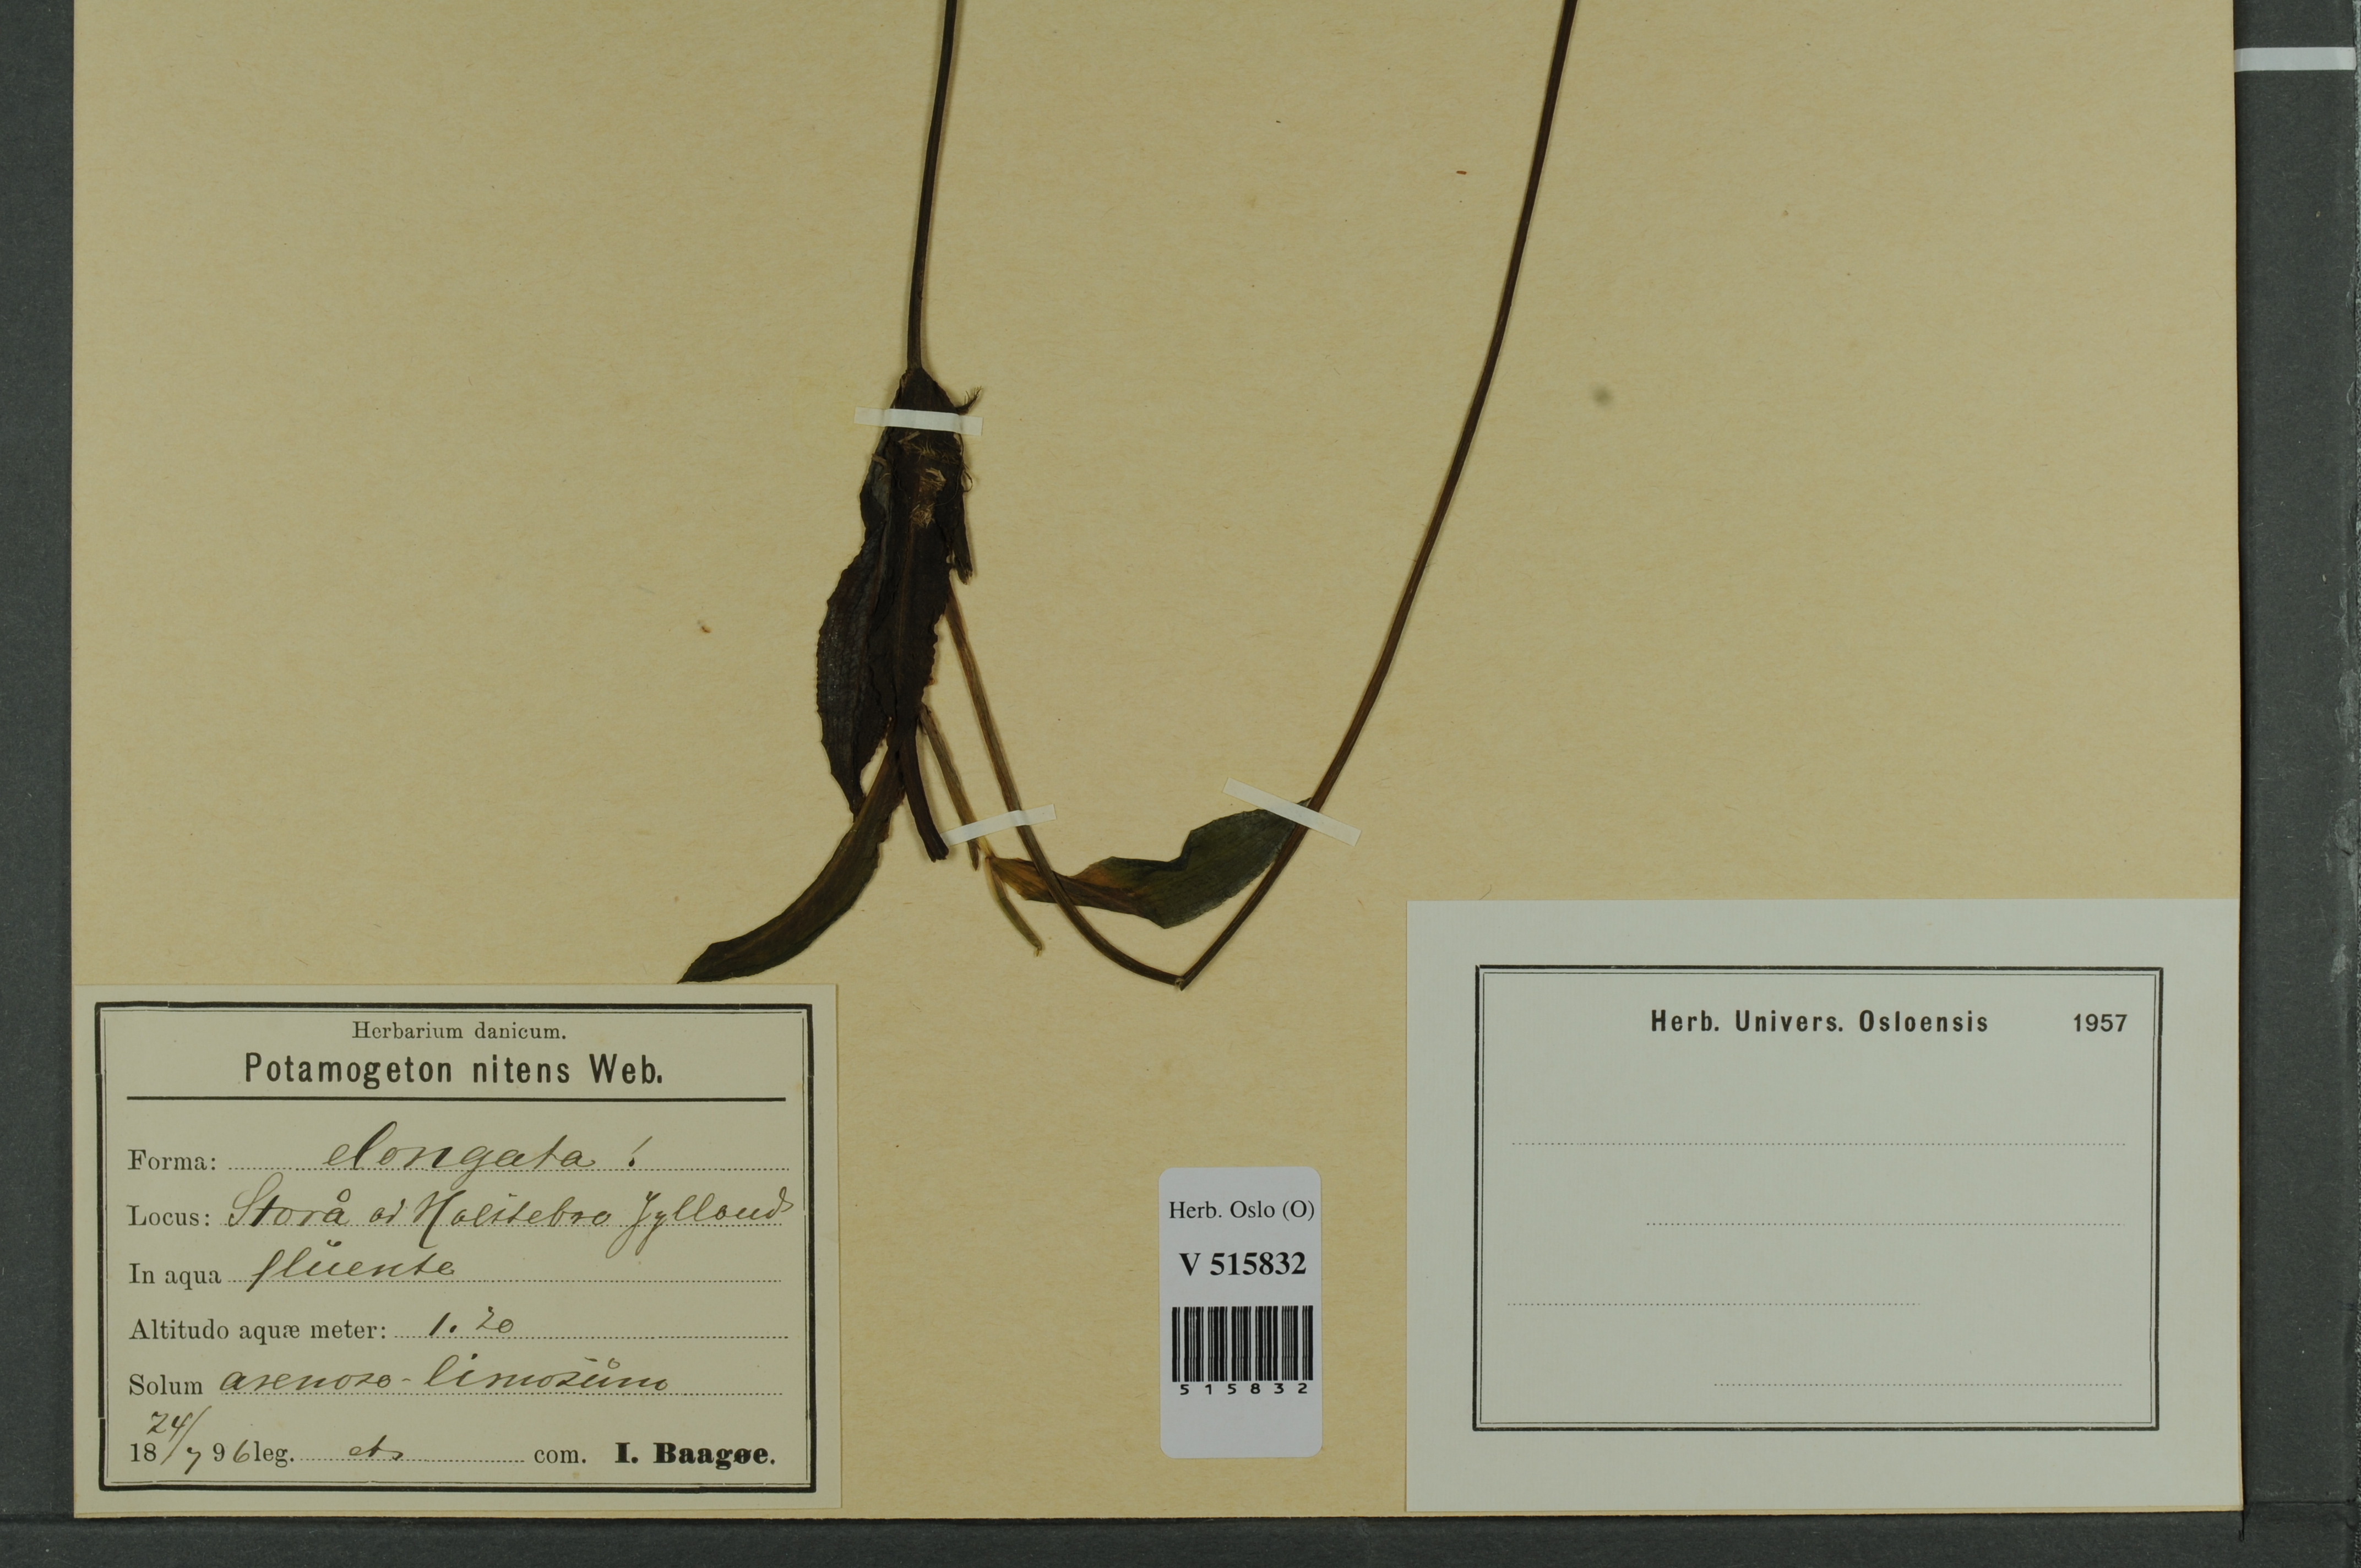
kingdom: Plantae
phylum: Tracheophyta
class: Liliopsida
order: Alismatales
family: Potamogetonaceae
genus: Potamogeton
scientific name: Potamogeton nitens
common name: Pondweed
